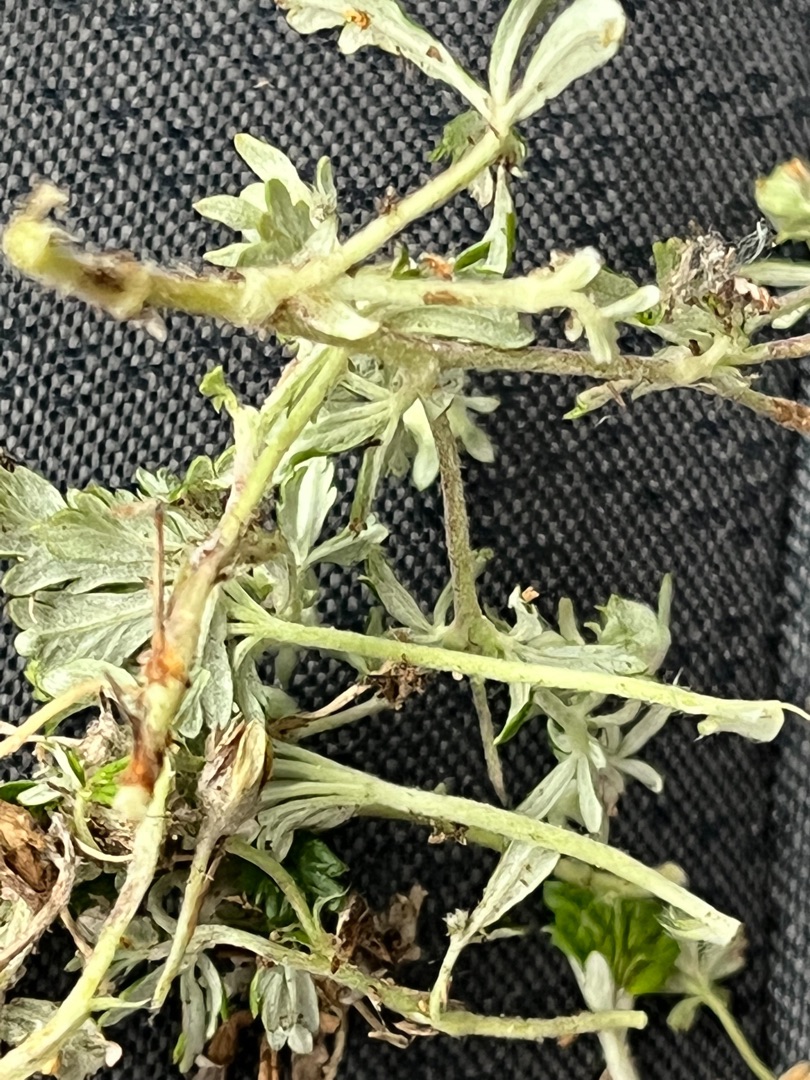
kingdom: Plantae
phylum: Tracheophyta
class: Magnoliopsida
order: Rosales
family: Rosaceae
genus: Potentilla
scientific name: Potentilla argentea
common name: Sølv-potentil
